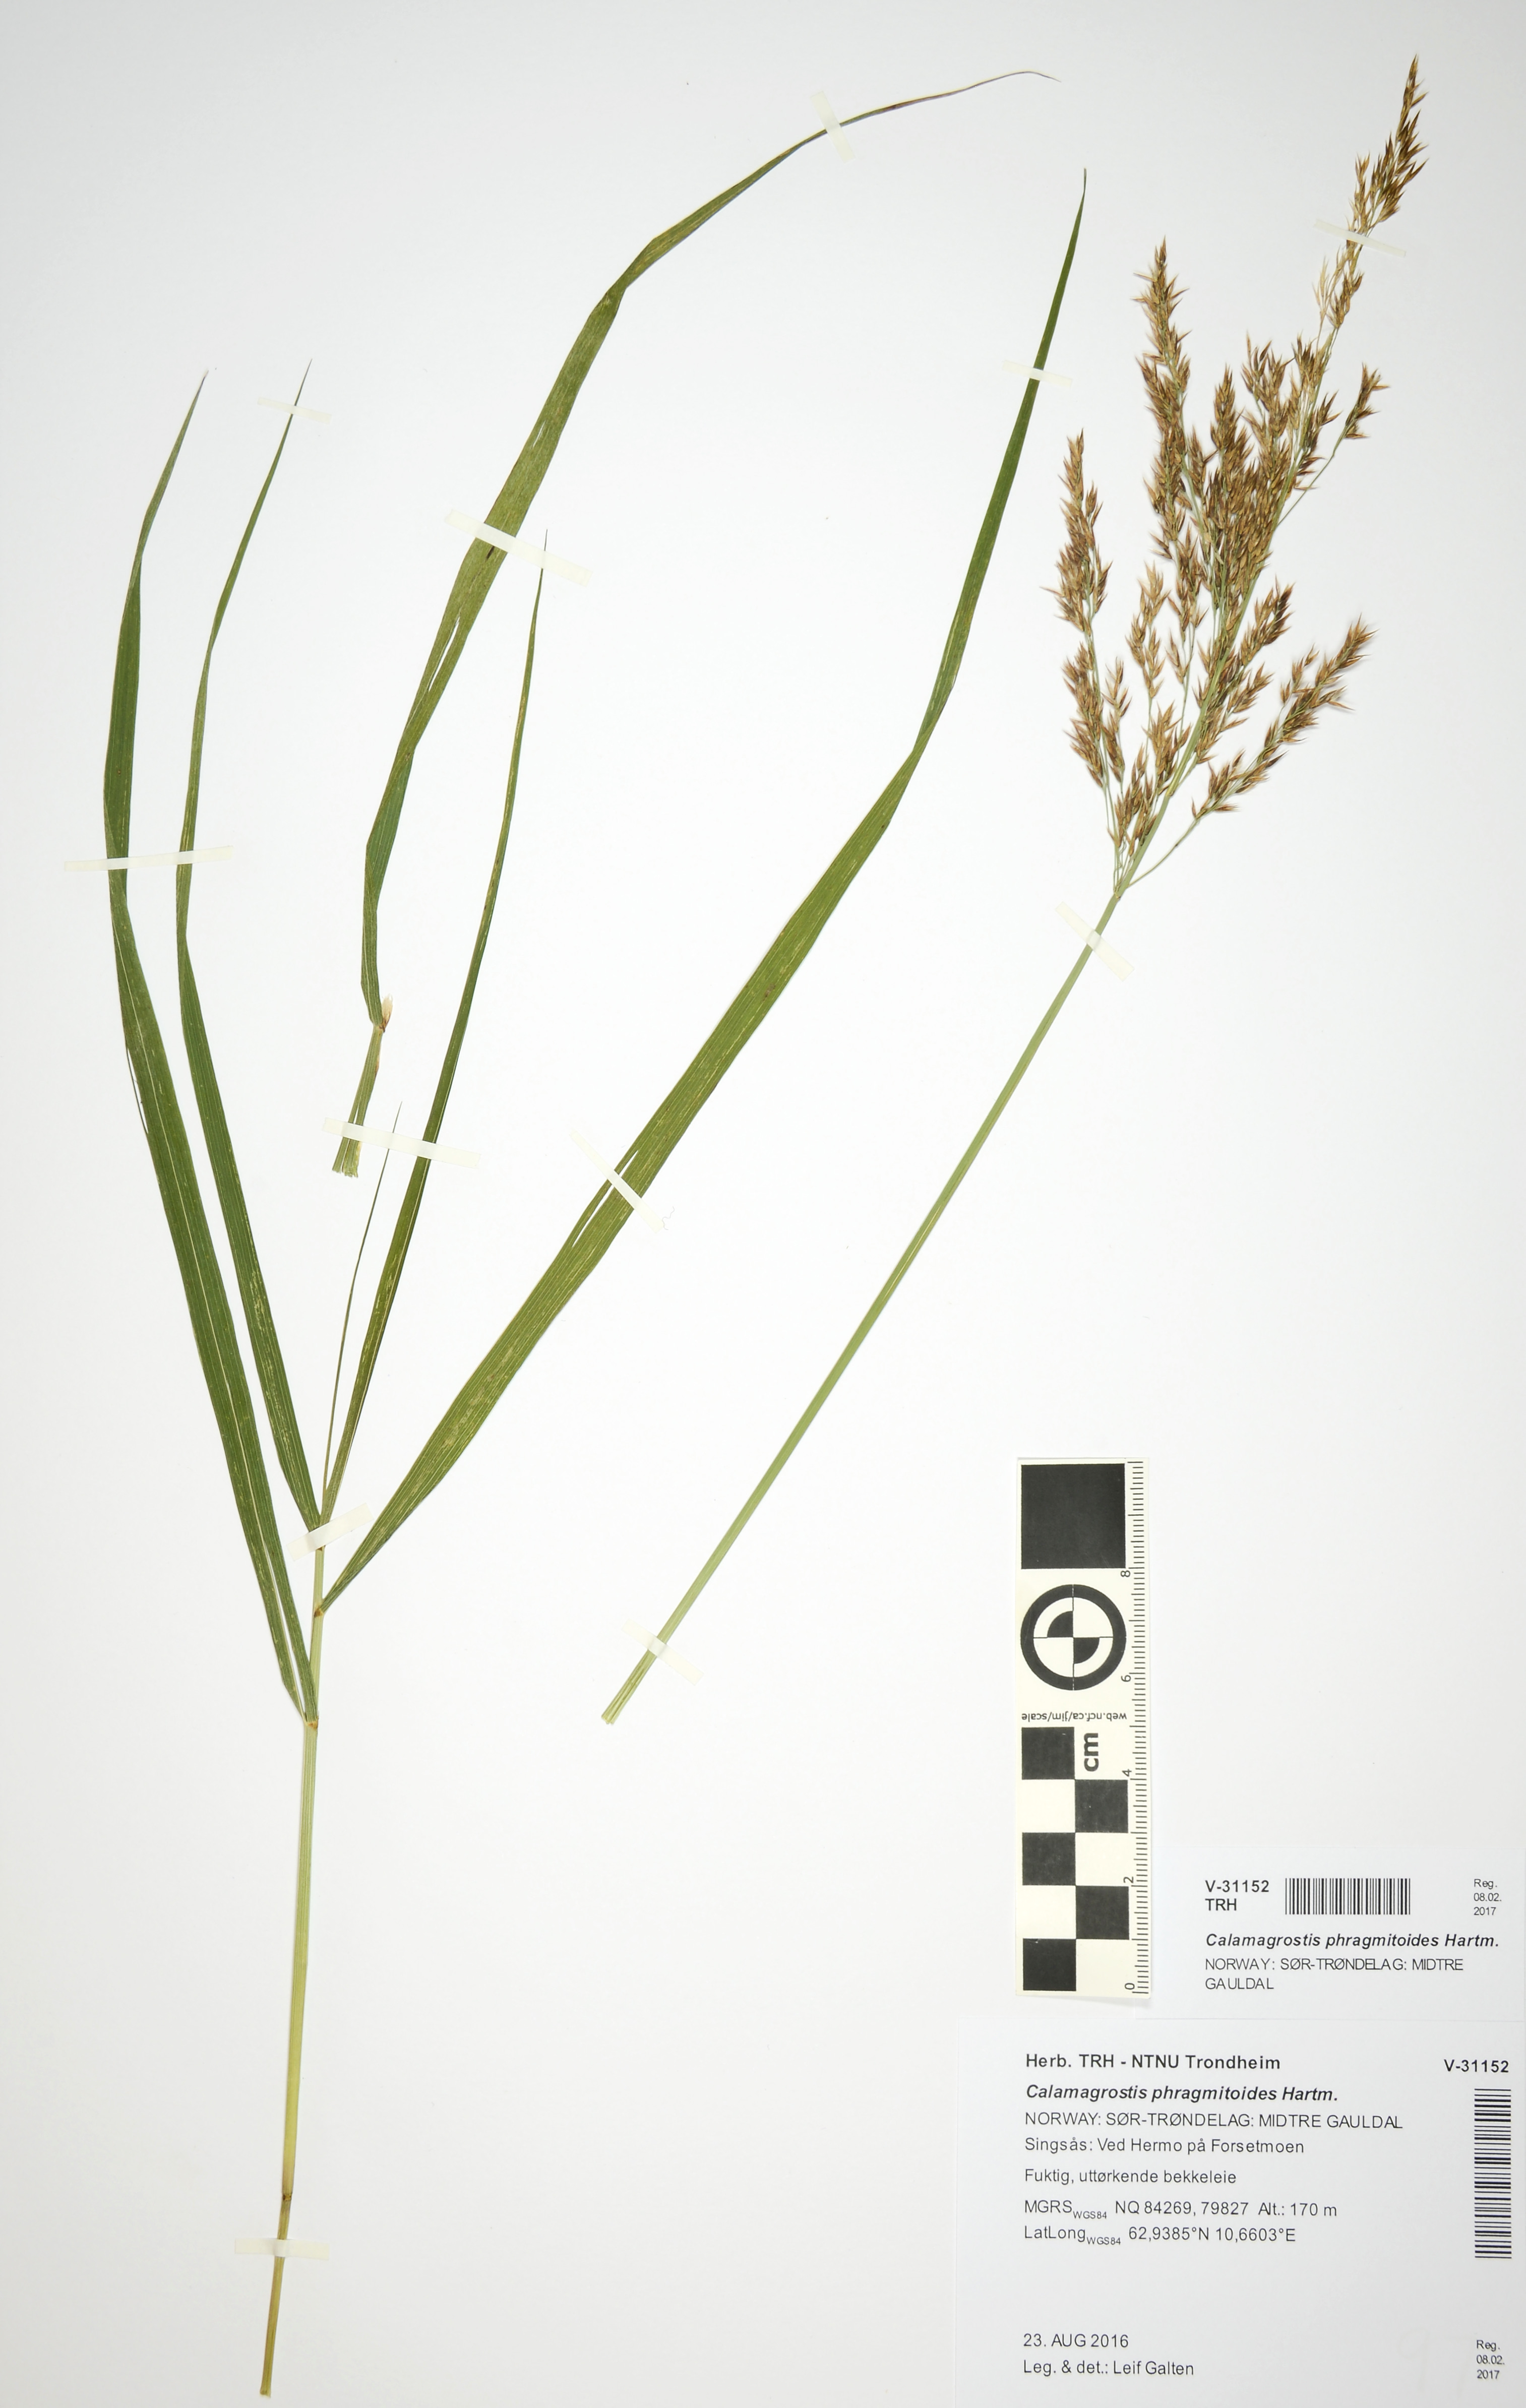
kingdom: Plantae
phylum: Tracheophyta
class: Liliopsida
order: Poales
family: Poaceae
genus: Calamagrostis
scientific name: Calamagrostis purpurea
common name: Scandinavian small-reed
